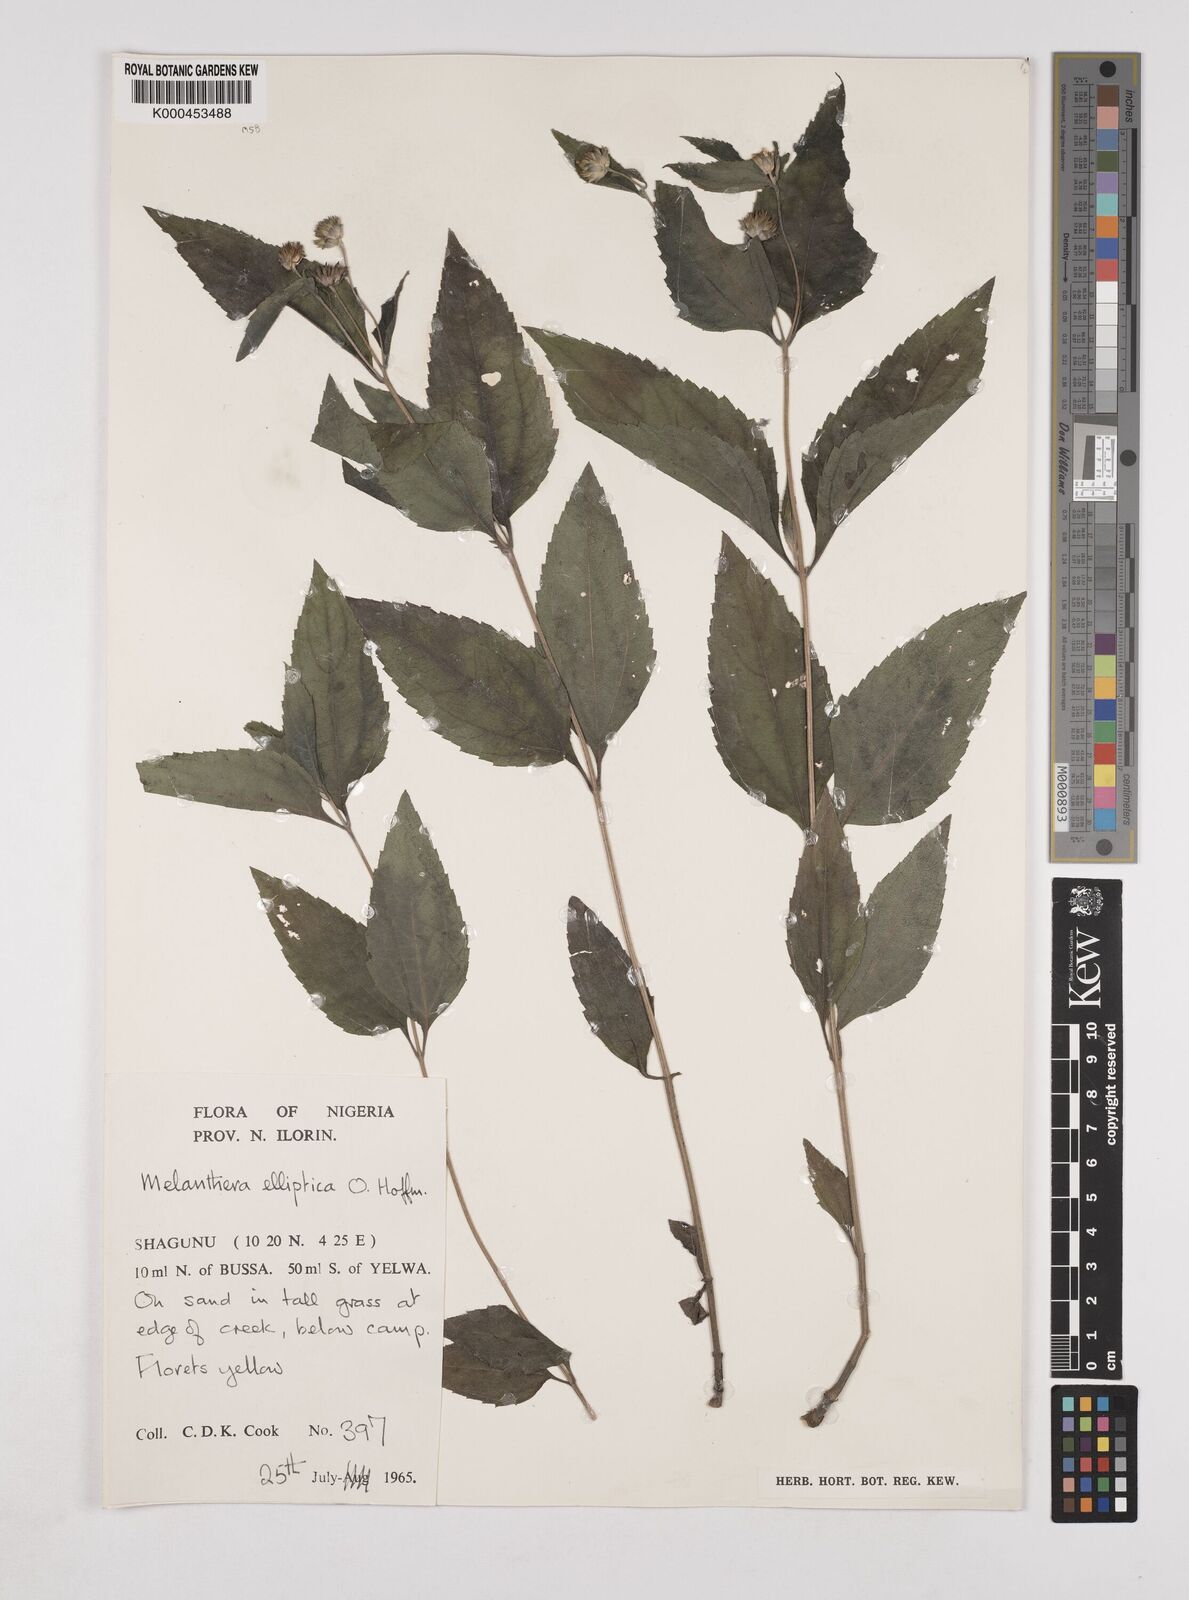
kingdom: Plantae
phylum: Tracheophyta
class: Magnoliopsida
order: Asterales
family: Asteraceae
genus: Lipotriche
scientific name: Lipotriche elliptica
